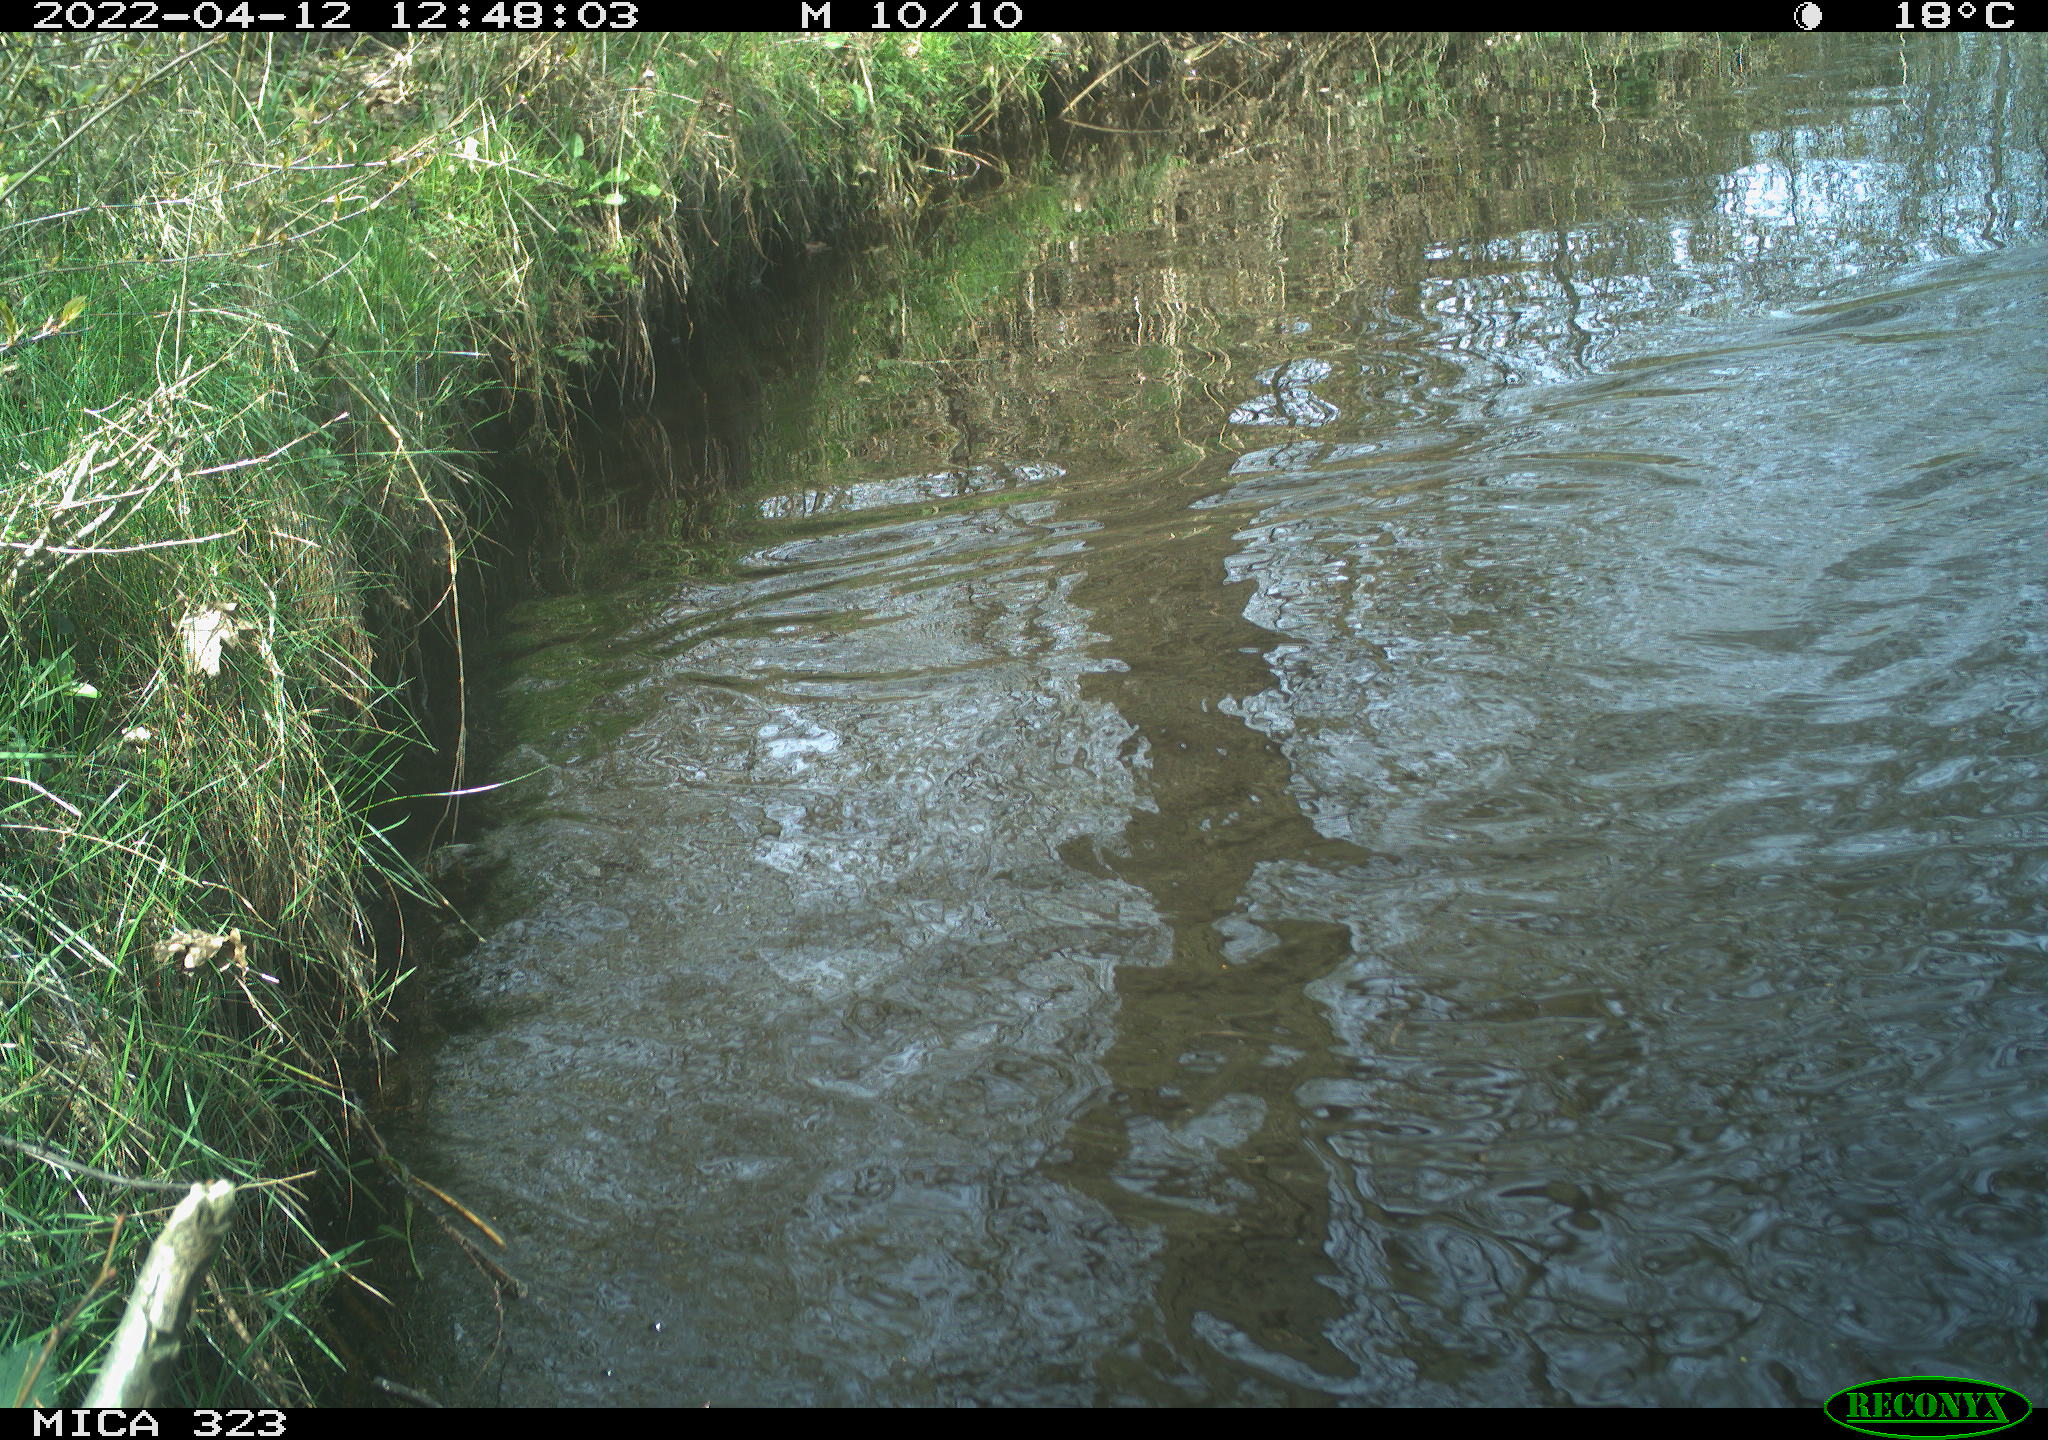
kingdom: Animalia
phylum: Chordata
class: Aves
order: Anseriformes
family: Anatidae
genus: Anas
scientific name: Anas platyrhynchos
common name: Mallard
